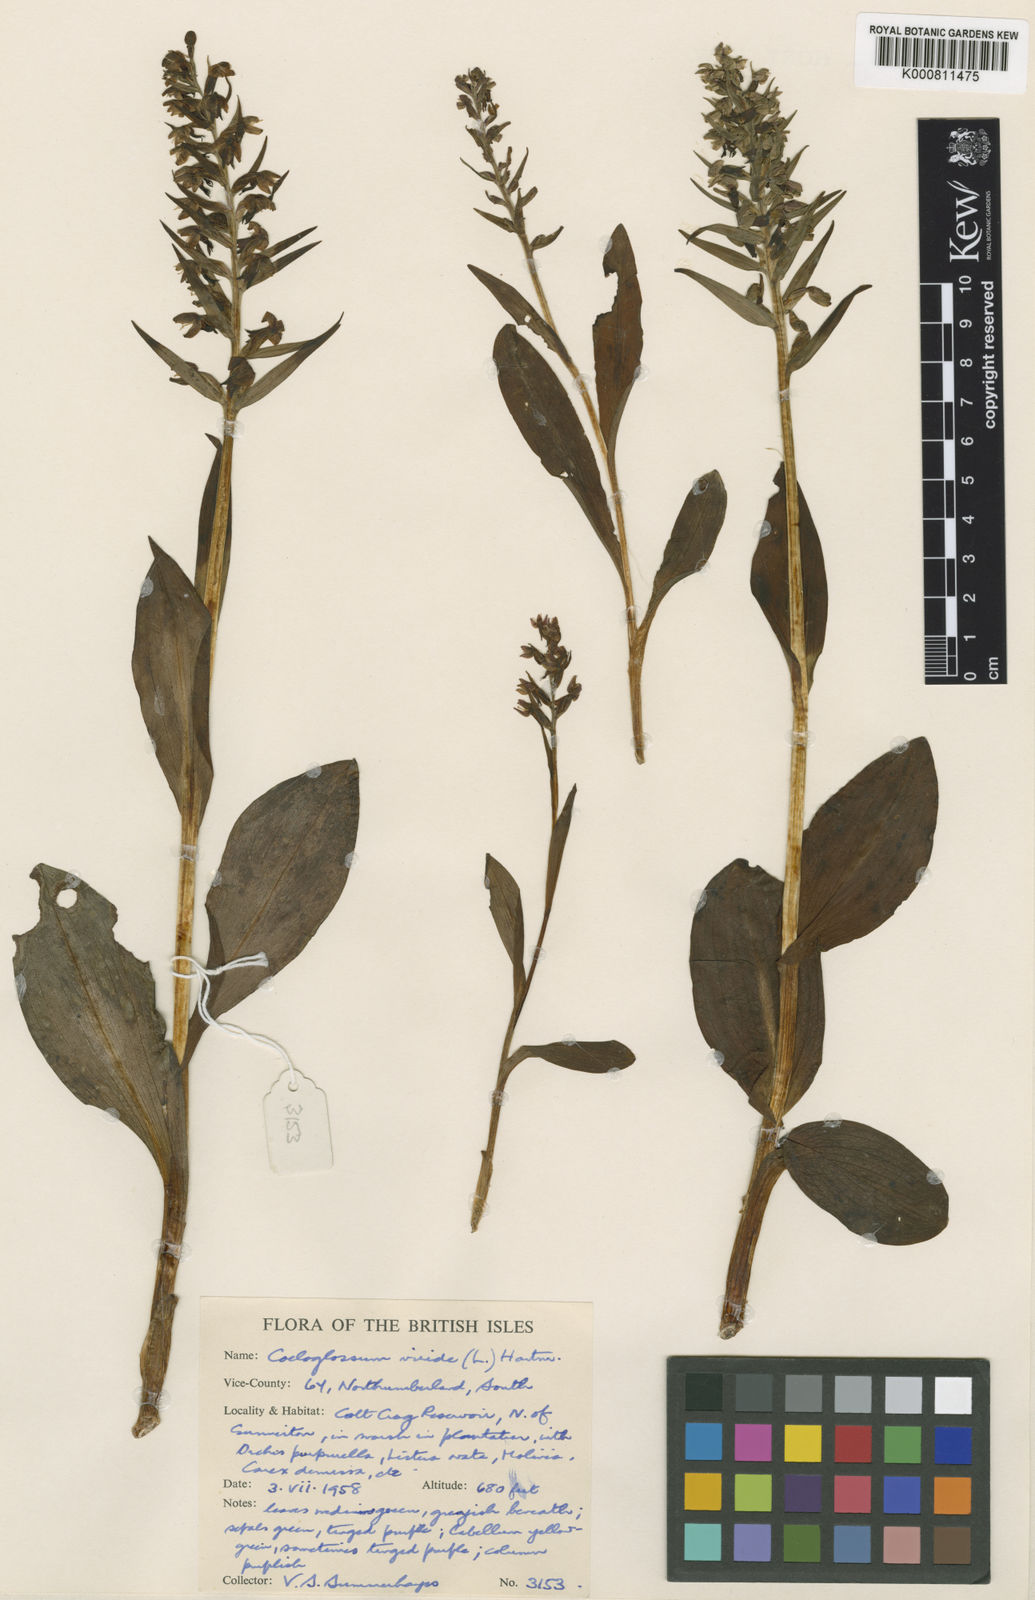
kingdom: Plantae
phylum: Tracheophyta
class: Liliopsida
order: Asparagales
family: Orchidaceae
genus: Dactylorhiza
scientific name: Dactylorhiza viridis
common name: Longbract frog orchid
